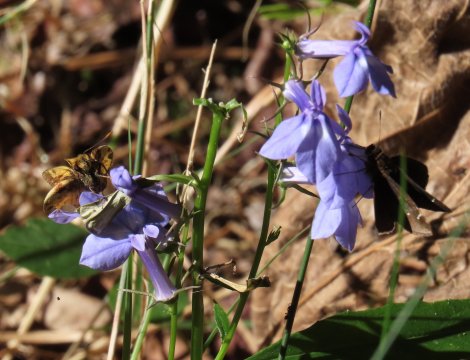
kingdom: Animalia
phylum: Arthropoda
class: Insecta
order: Lepidoptera
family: Hesperiidae
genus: Lon
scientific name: Lon zabulon
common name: Zabulon Skipper
